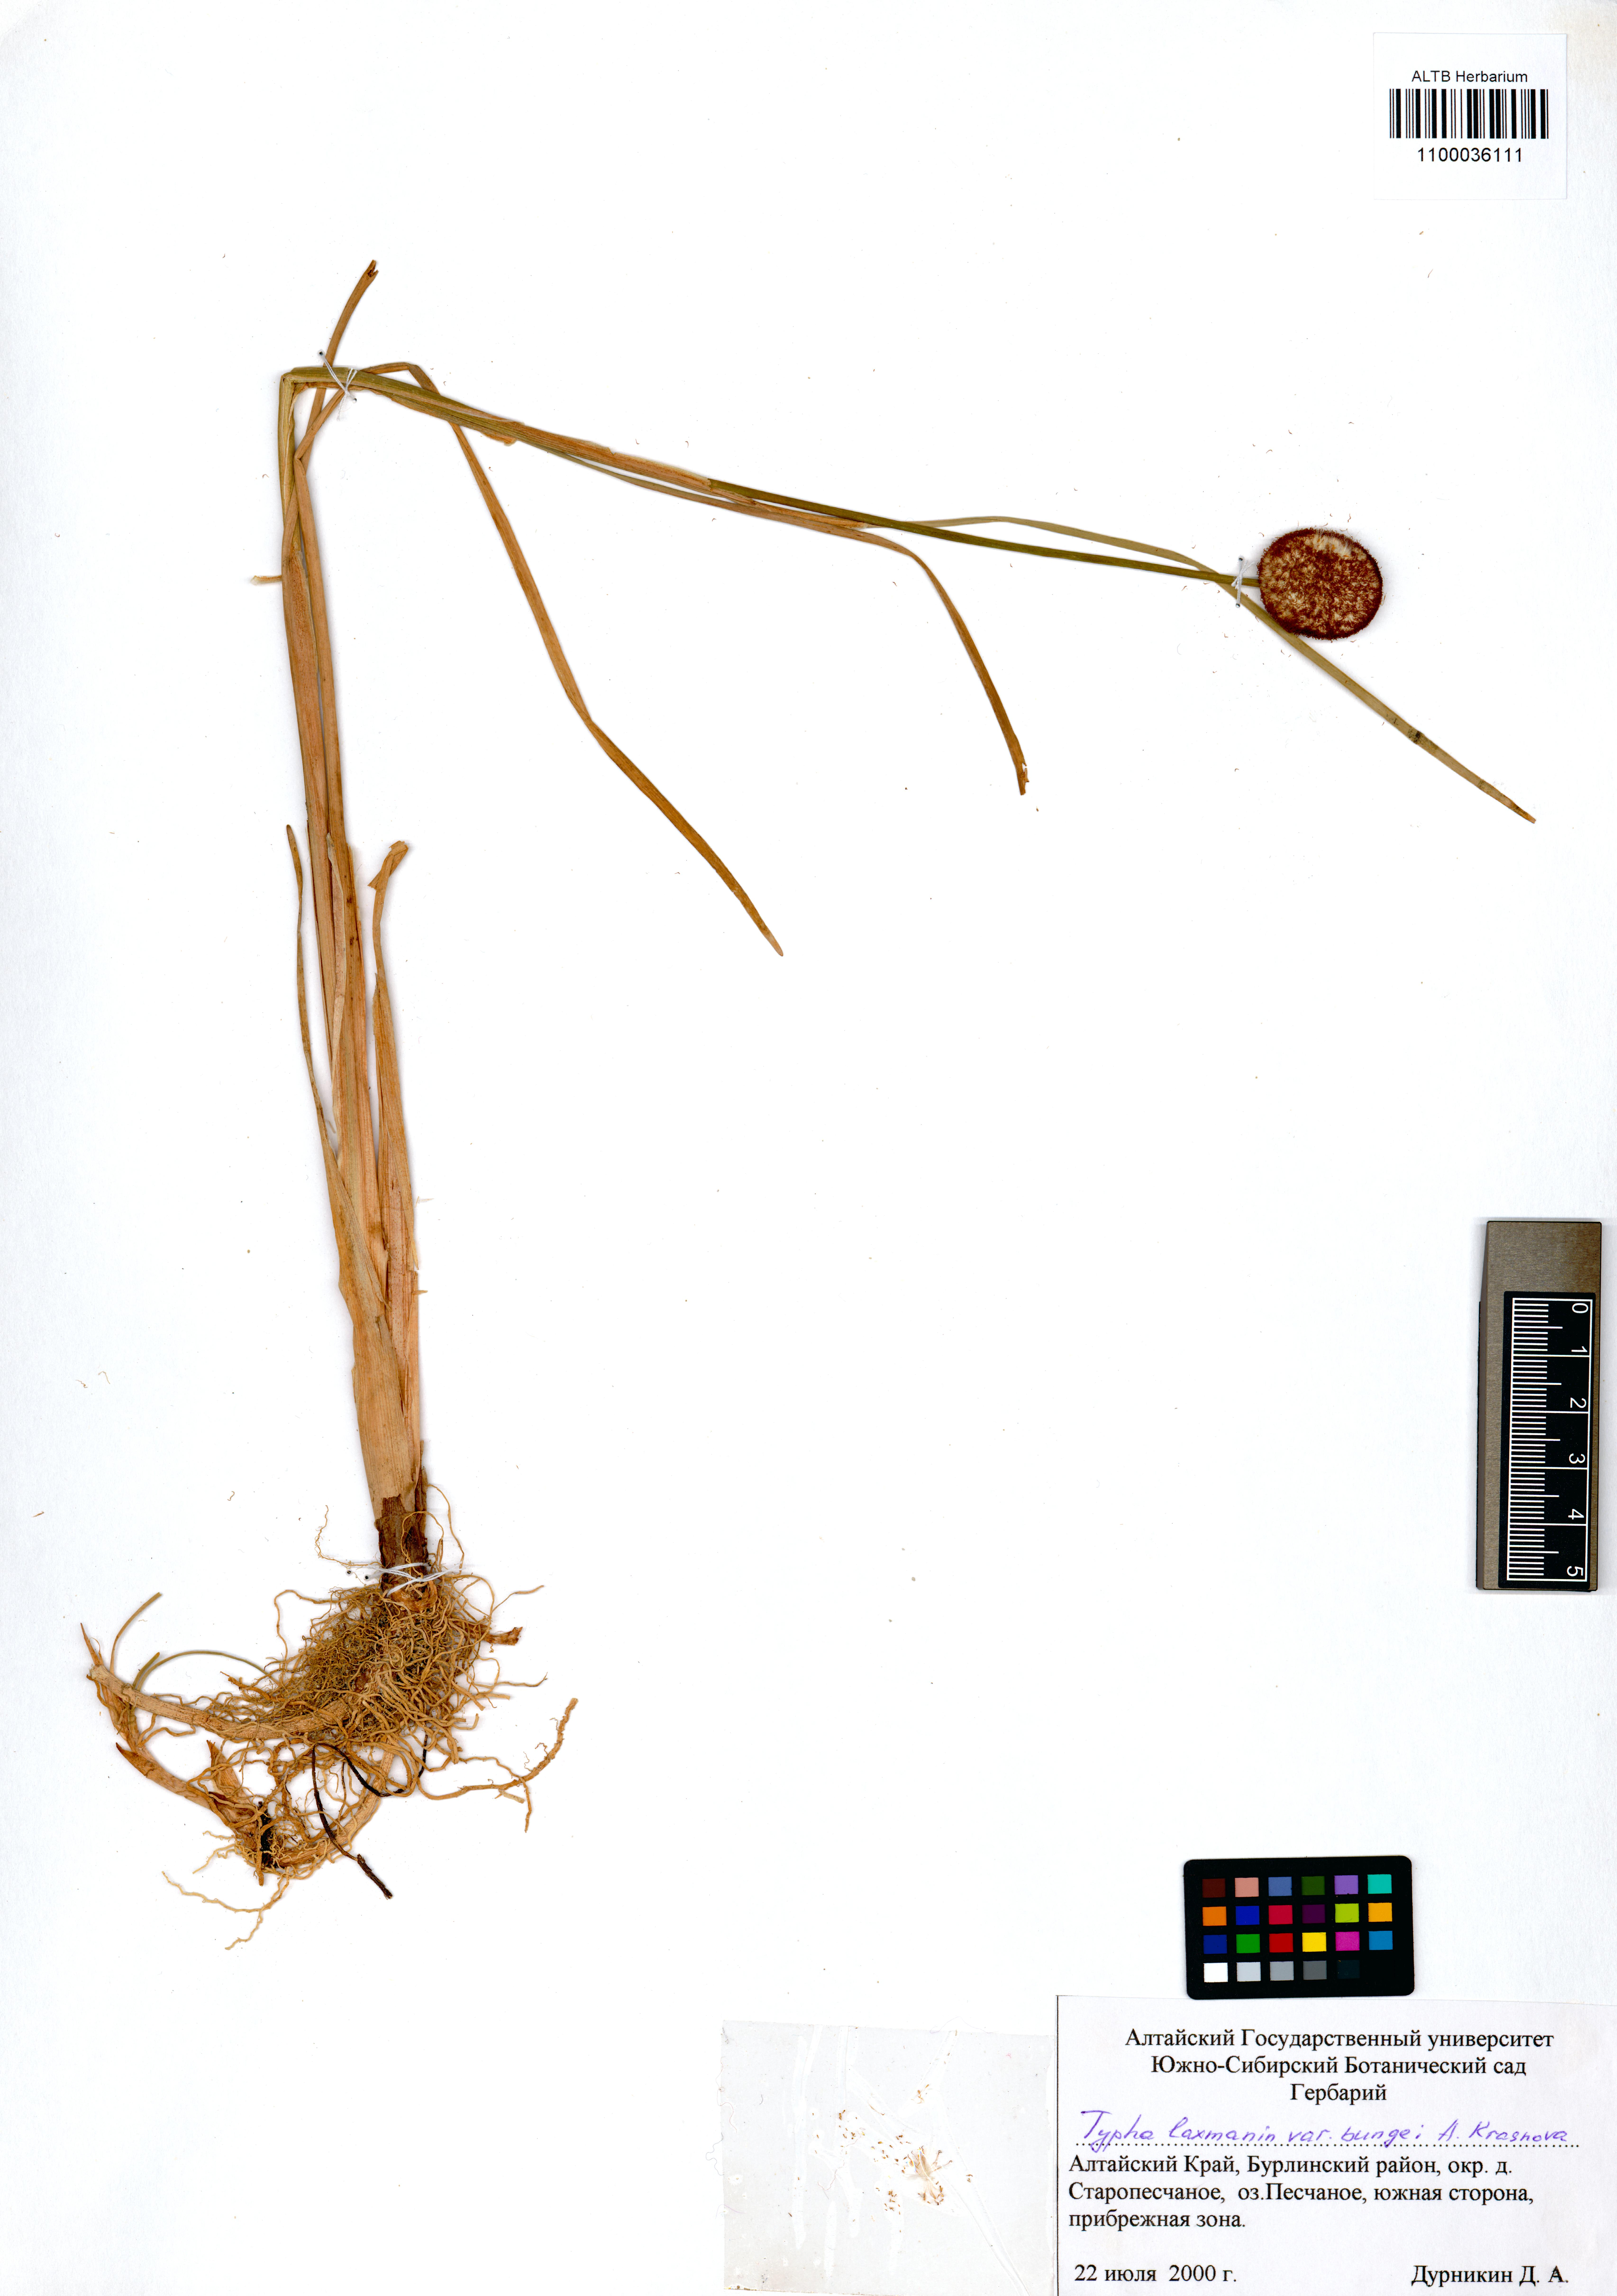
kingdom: Plantae
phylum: Tracheophyta
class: Liliopsida
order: Poales
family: Typhaceae
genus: Typha
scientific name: Typha laxmannii
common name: Laxman’s bulrush
